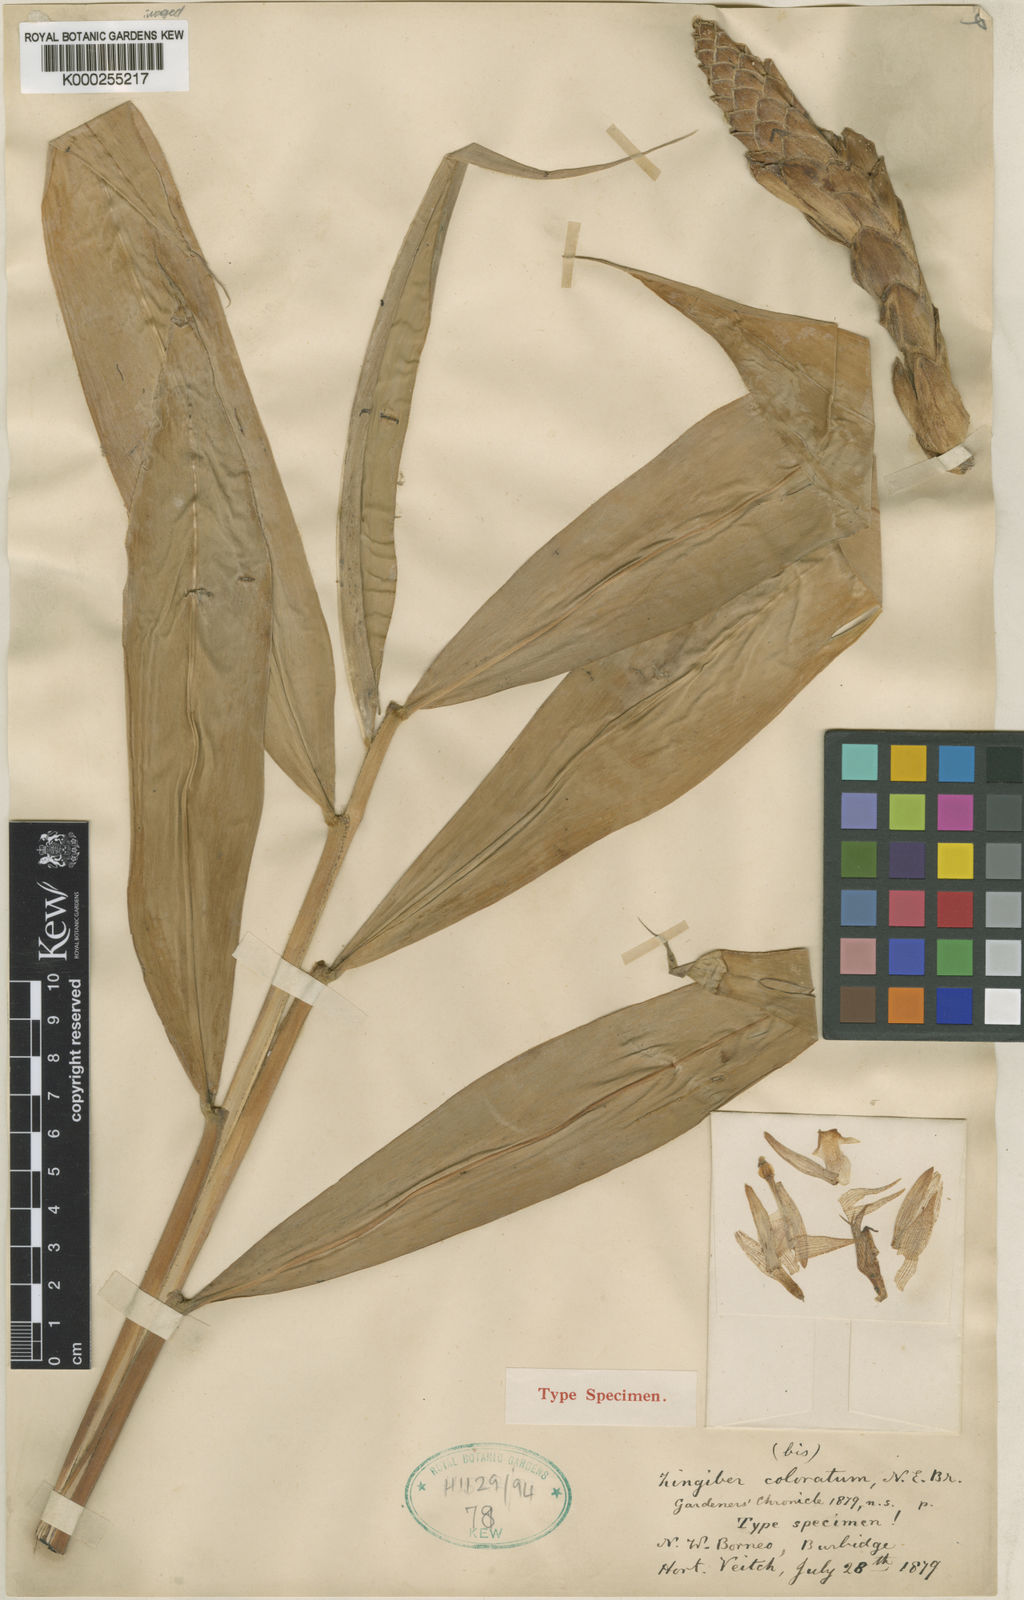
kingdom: Plantae
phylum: Tracheophyta
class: Liliopsida
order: Zingiberales
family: Zingiberaceae
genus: Zingiber
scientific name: Zingiber coloratum
